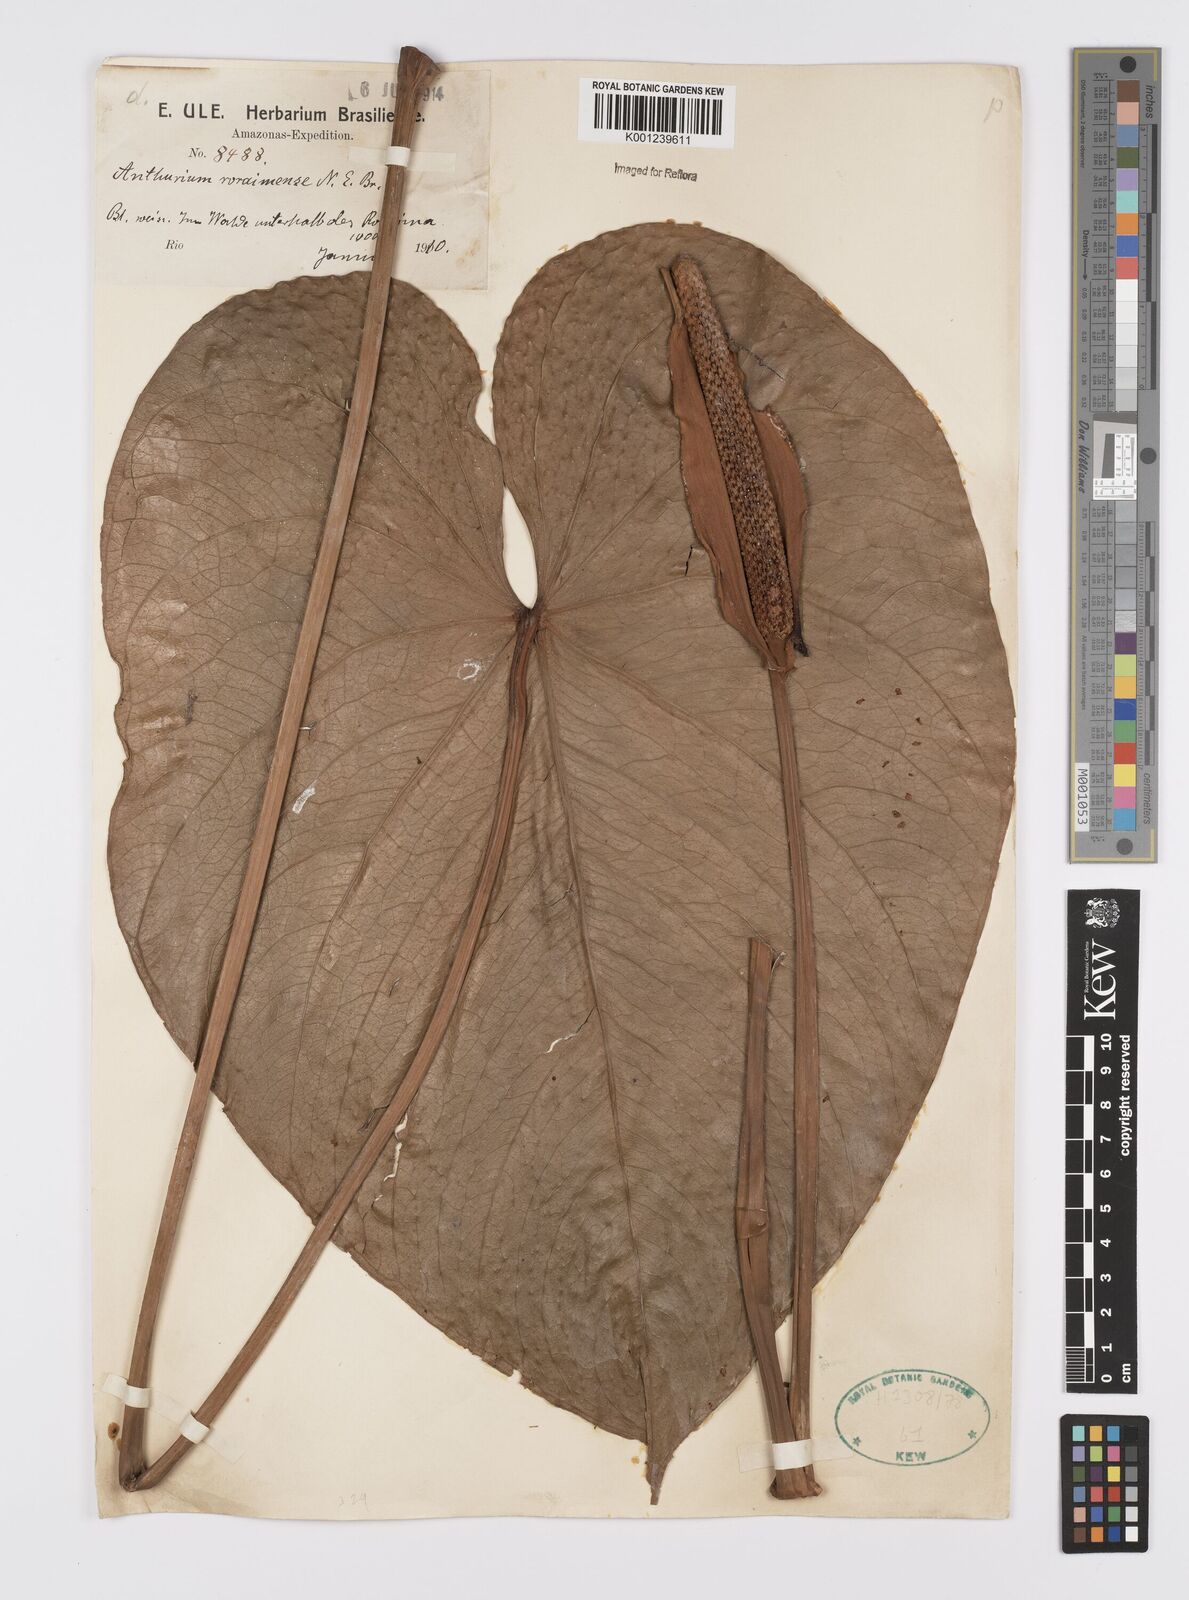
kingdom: Plantae
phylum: Tracheophyta
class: Liliopsida
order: Alismatales
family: Araceae
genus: Anthurium
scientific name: Anthurium roraimense
